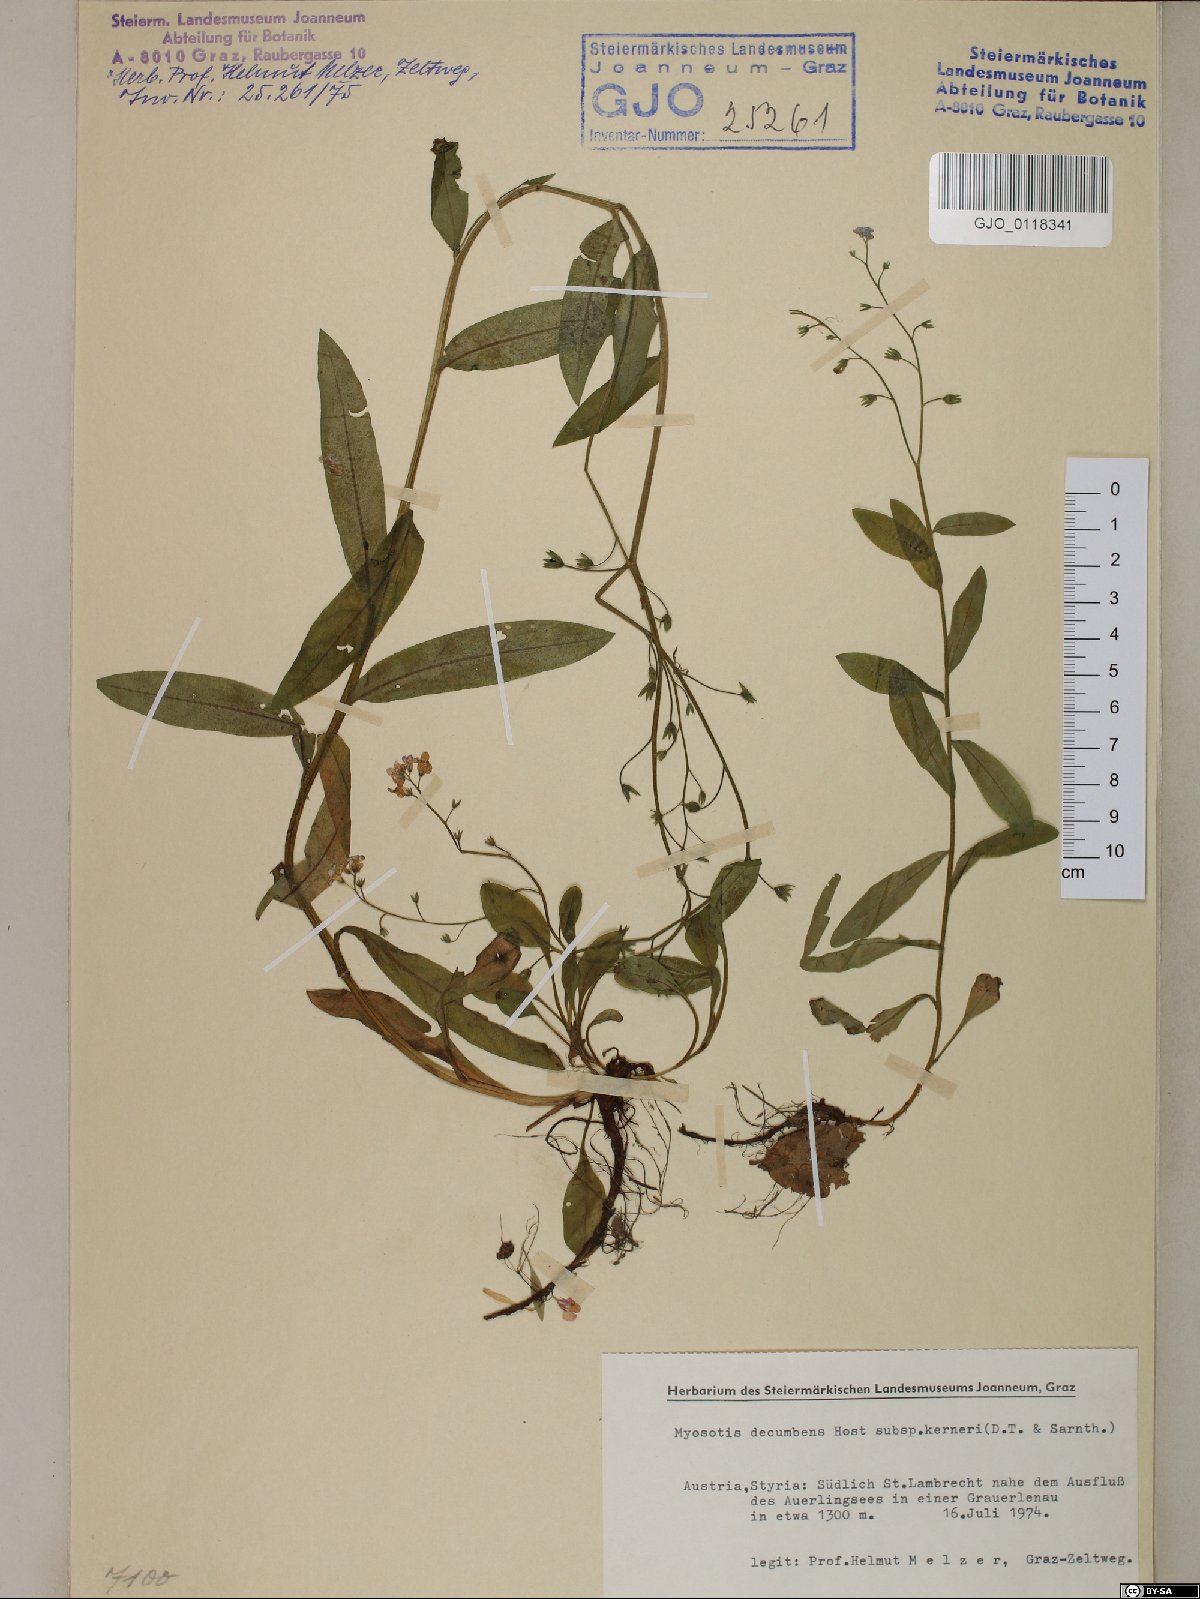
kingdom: Plantae
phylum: Tracheophyta
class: Magnoliopsida
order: Boraginales
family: Boraginaceae
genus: Myosotis
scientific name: Myosotis decumbens
